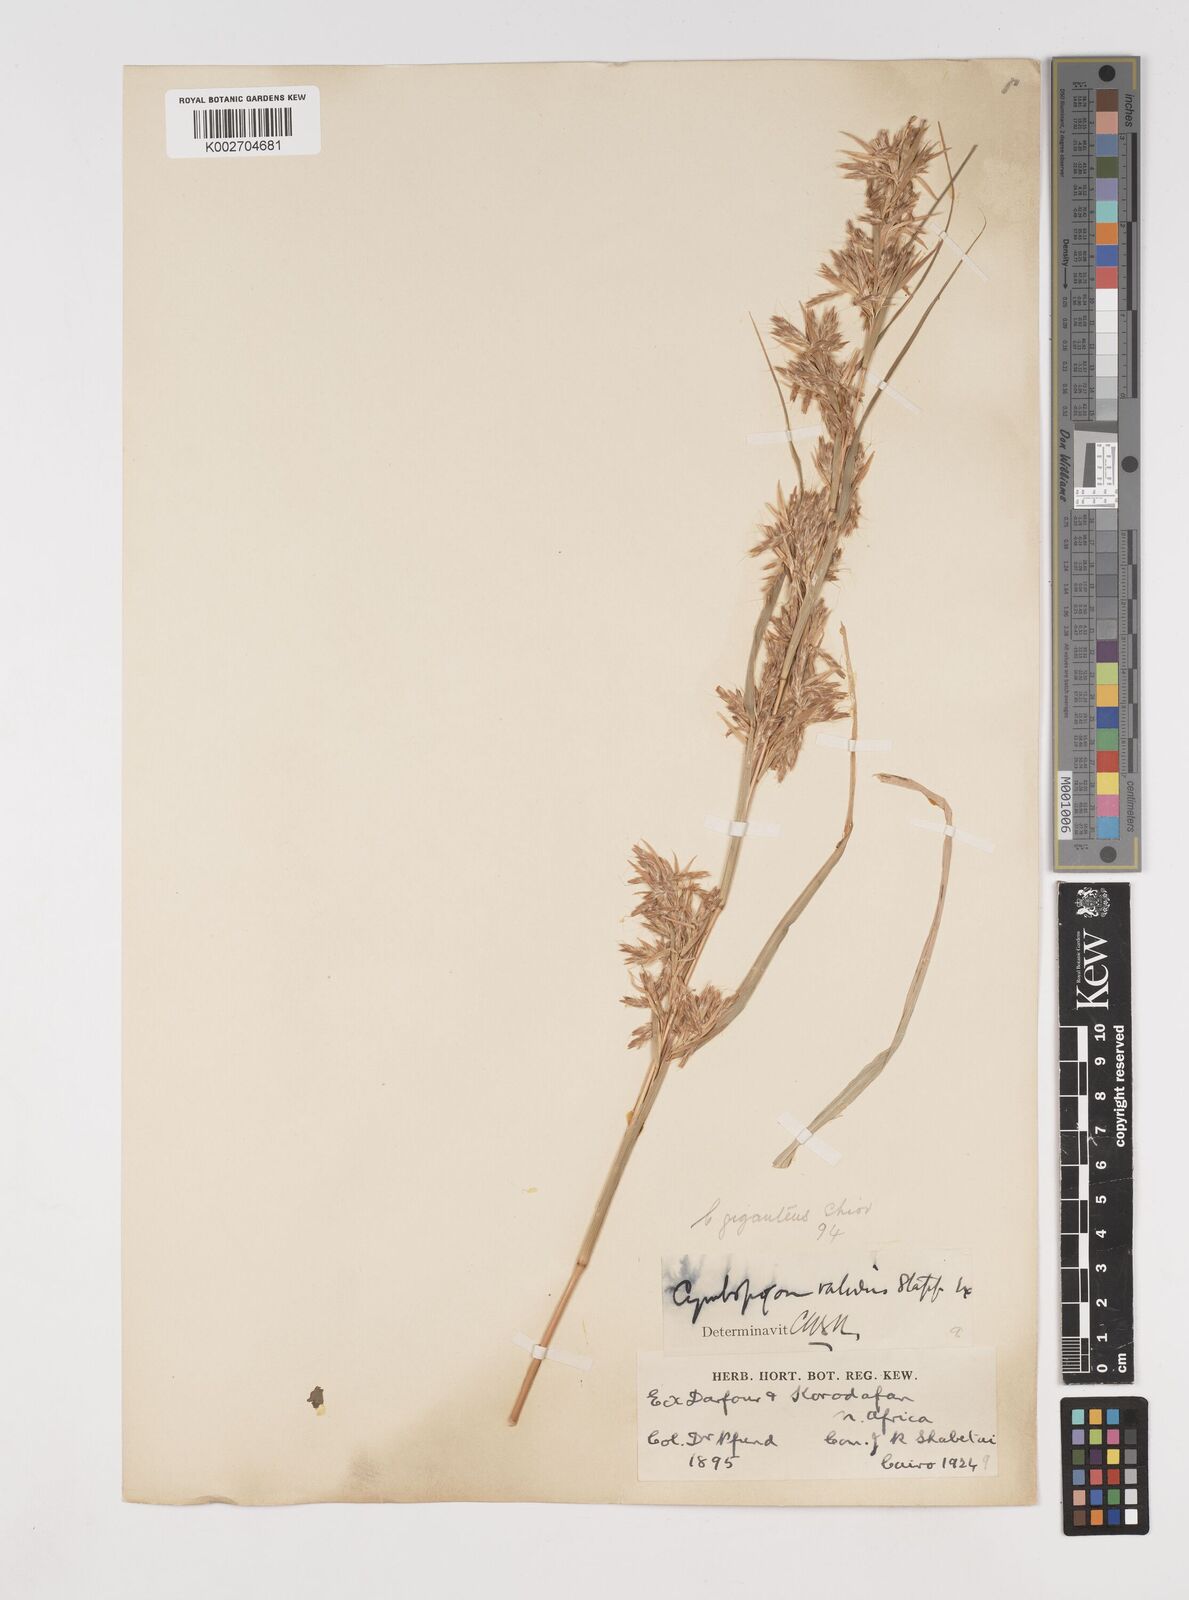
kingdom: Plantae
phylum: Tracheophyta
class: Liliopsida
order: Poales
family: Poaceae
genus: Cymbopogon
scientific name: Cymbopogon giganteus
